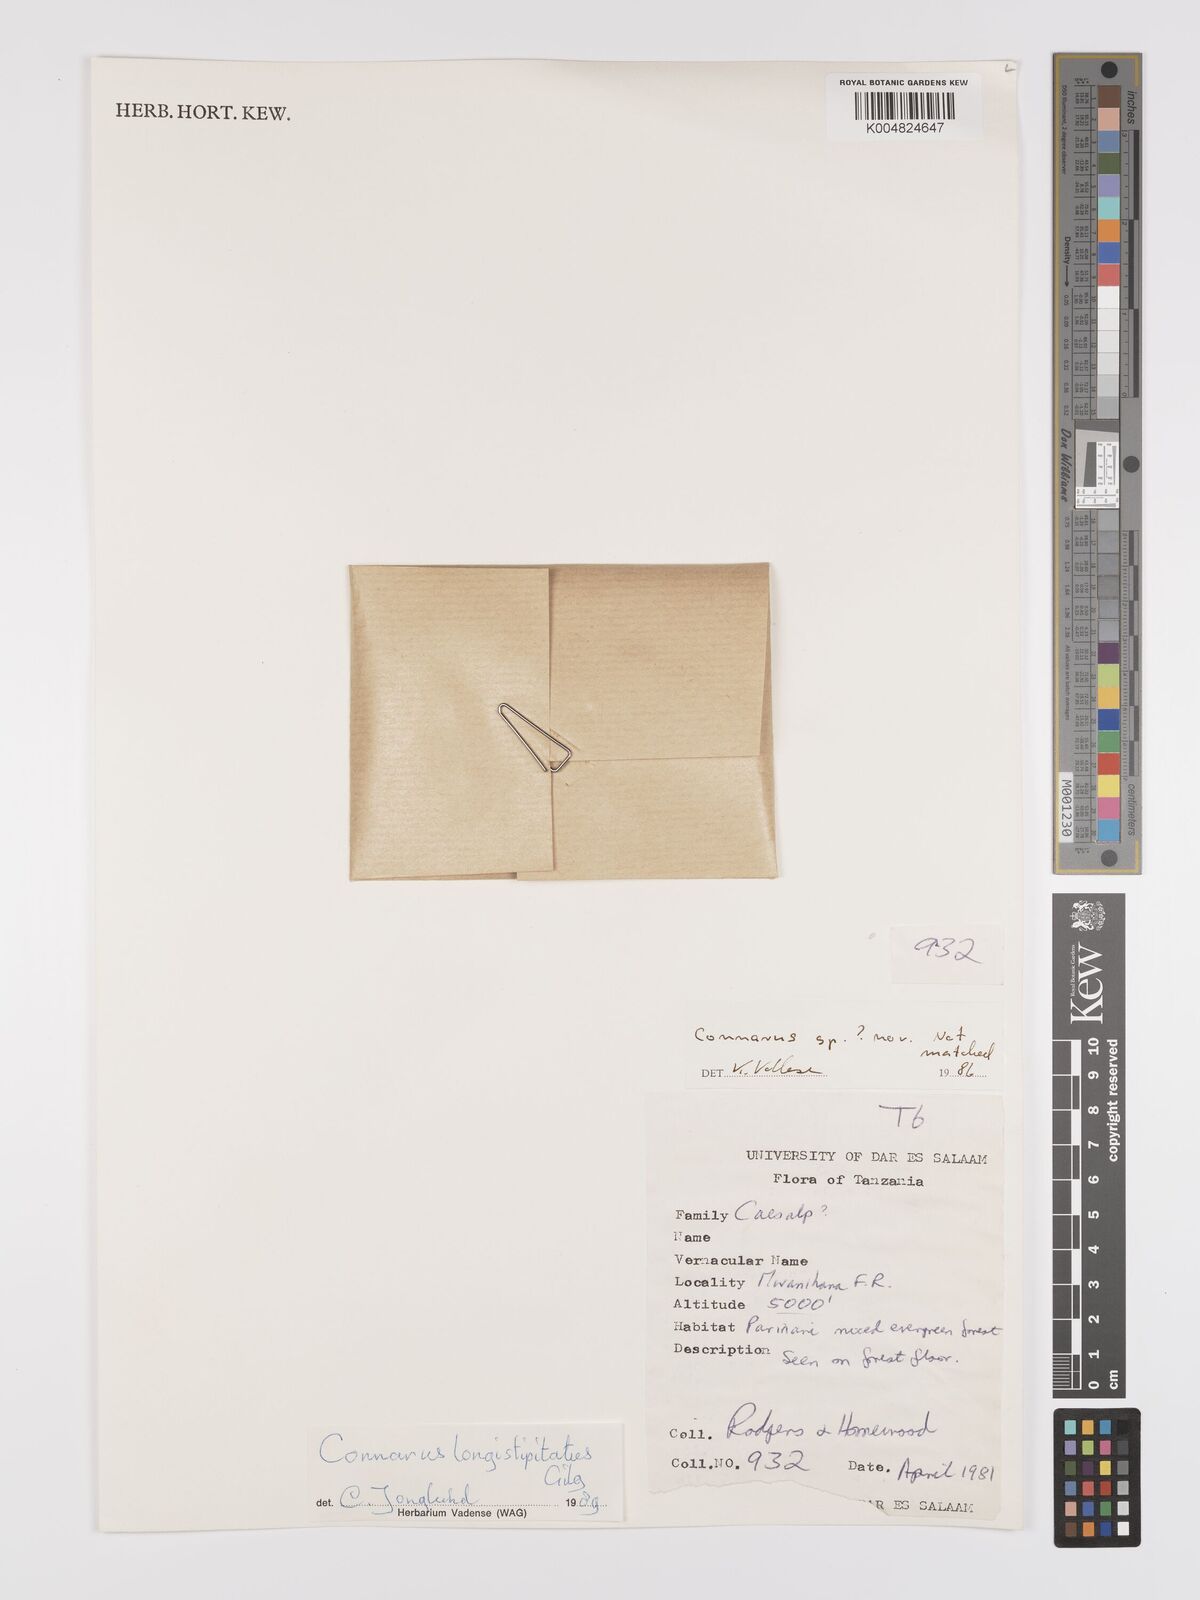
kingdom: Plantae
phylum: Tracheophyta
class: Magnoliopsida
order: Oxalidales
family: Connaraceae
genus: Connarus
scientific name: Connarus
